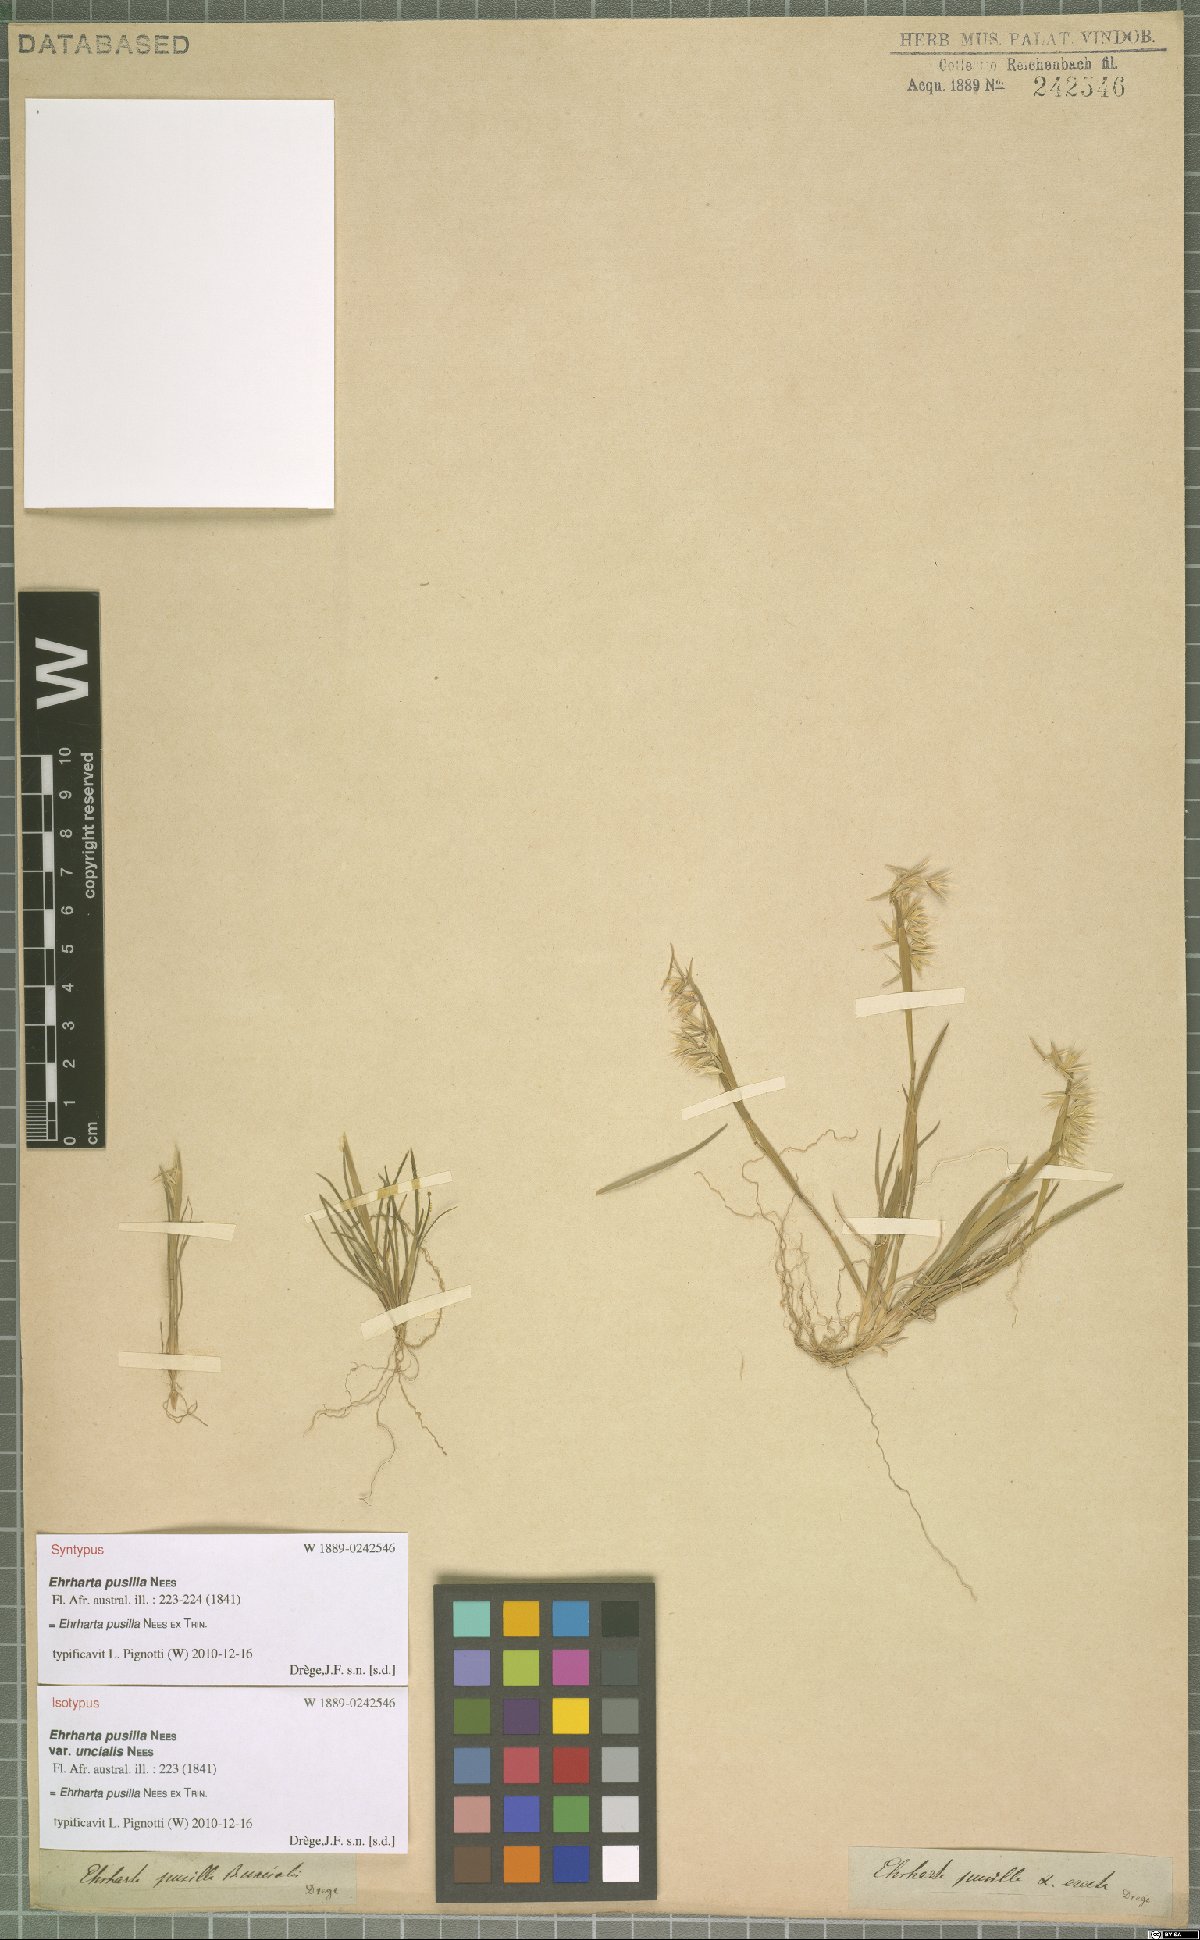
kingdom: Plantae
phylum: Tracheophyta
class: Liliopsida
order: Poales
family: Poaceae
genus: Ehrharta
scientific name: Ehrharta pusilla
